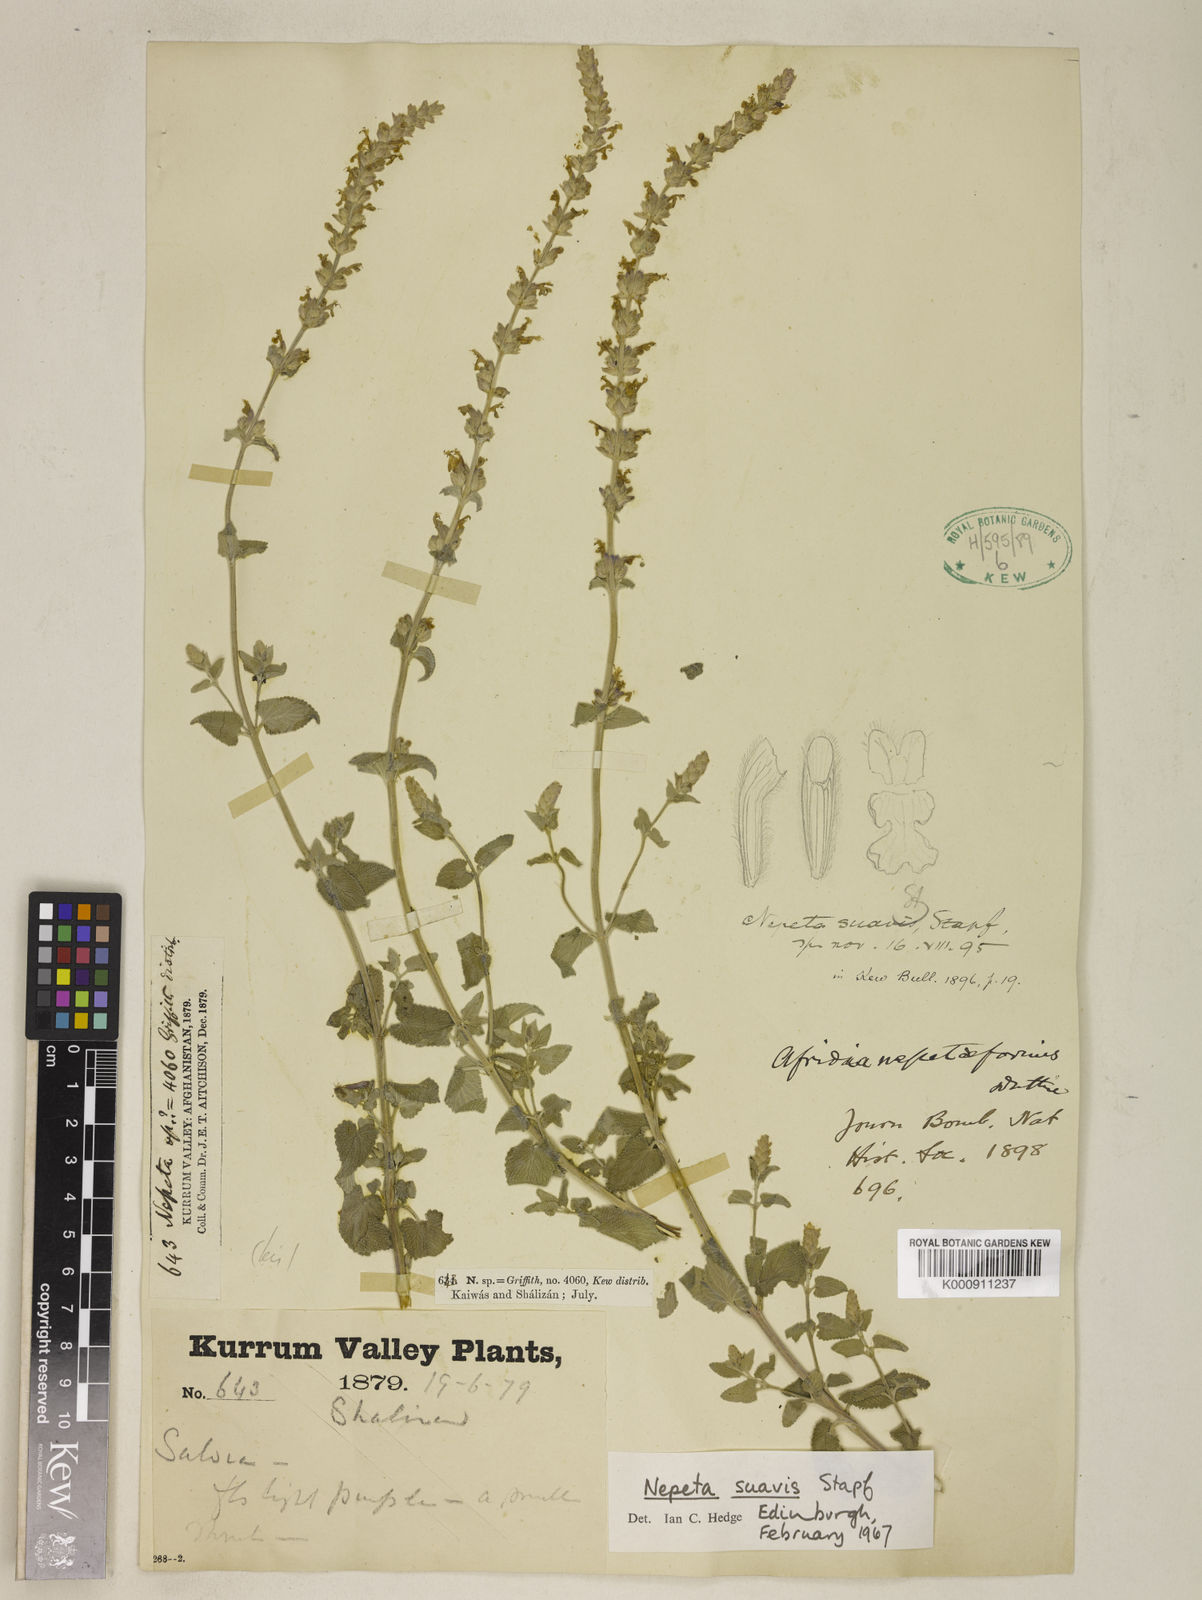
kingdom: Plantae
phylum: Tracheophyta
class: Magnoliopsida
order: Lamiales
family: Lamiaceae
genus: Nepeta
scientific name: Nepeta suavis
